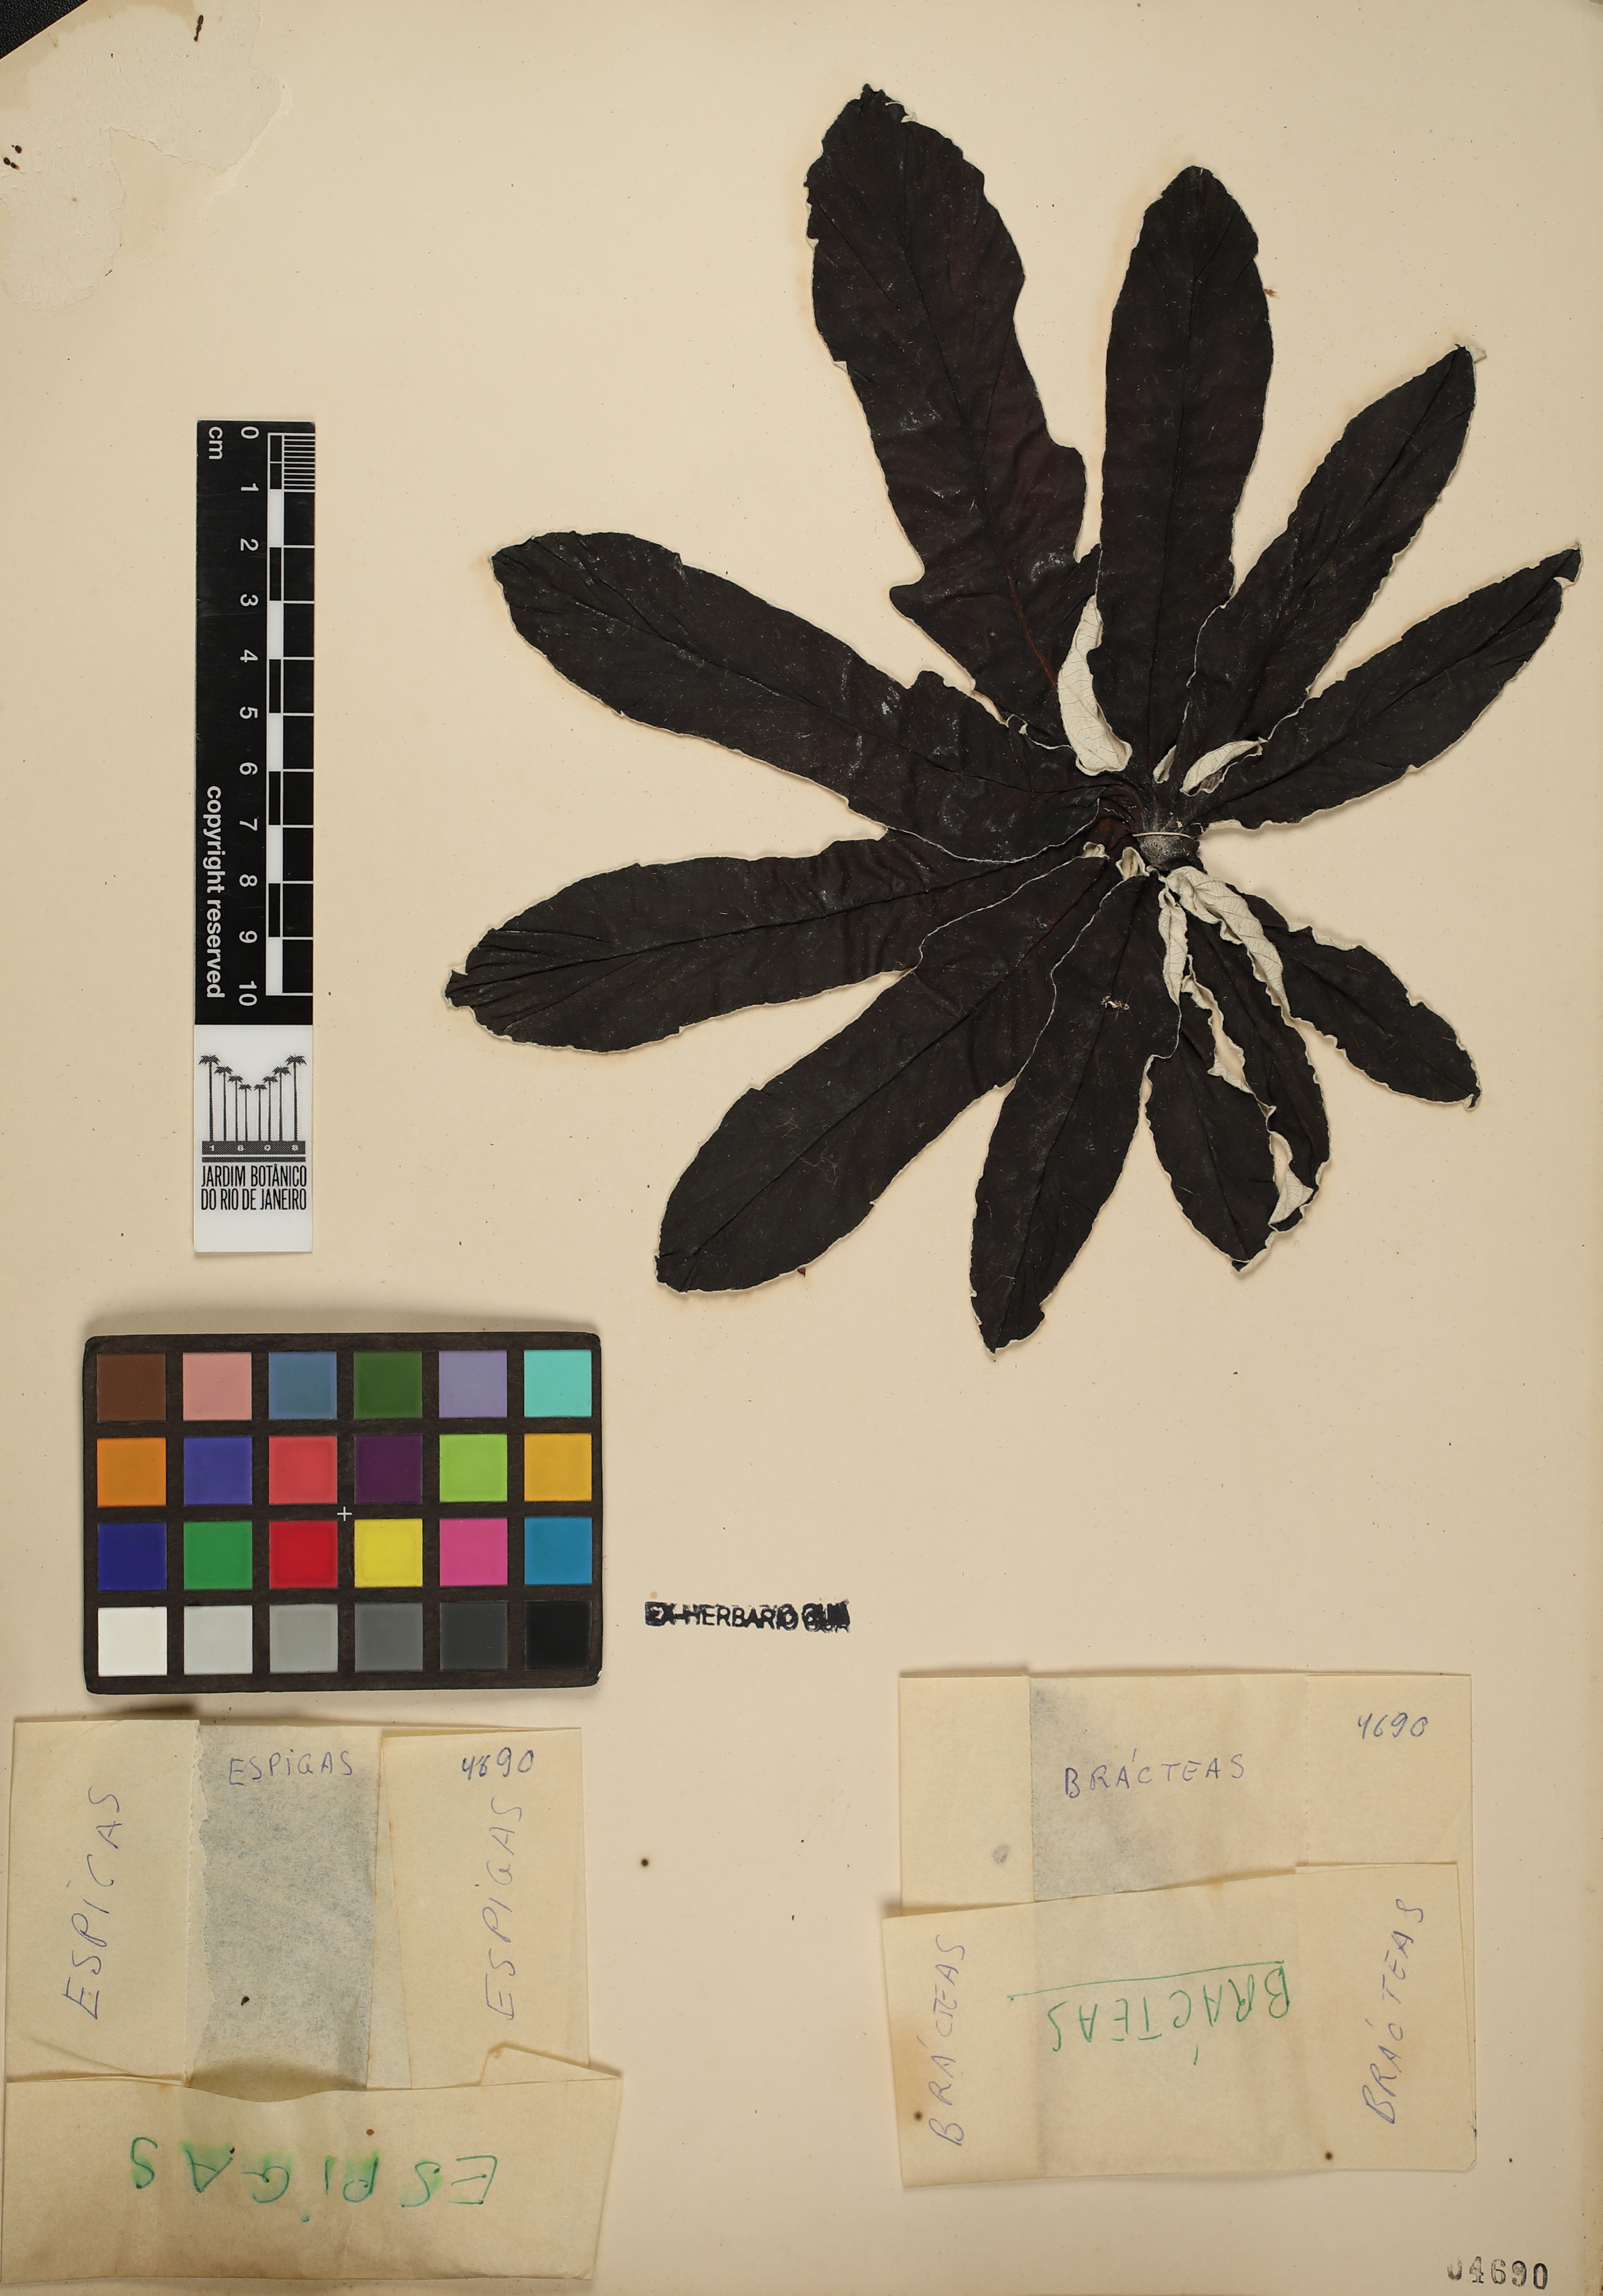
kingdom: Plantae
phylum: Tracheophyta
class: Magnoliopsida
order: Rosales
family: Urticaceae
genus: Cecropia
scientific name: Cecropia pachystachya
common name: Ambay pumpwood
